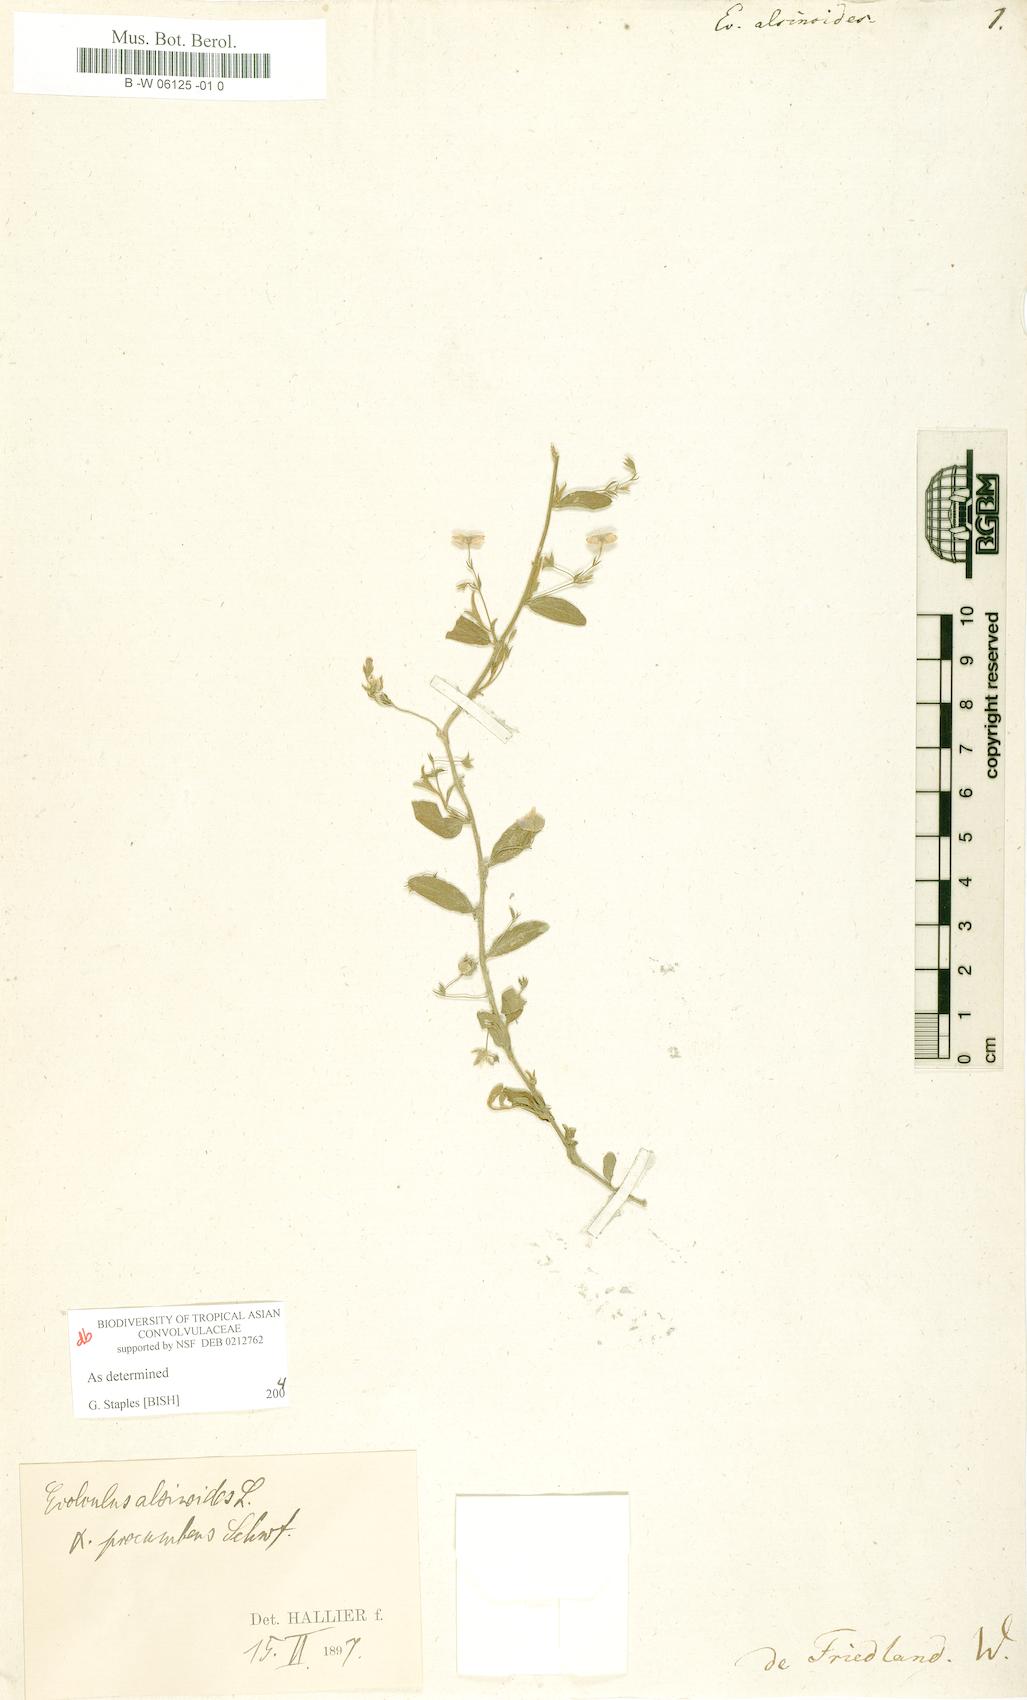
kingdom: Plantae
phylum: Tracheophyta
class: Magnoliopsida
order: Solanales
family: Convolvulaceae
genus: Evolvulus
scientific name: Evolvulus alsinoides
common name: Slender dwarf morning-glory
